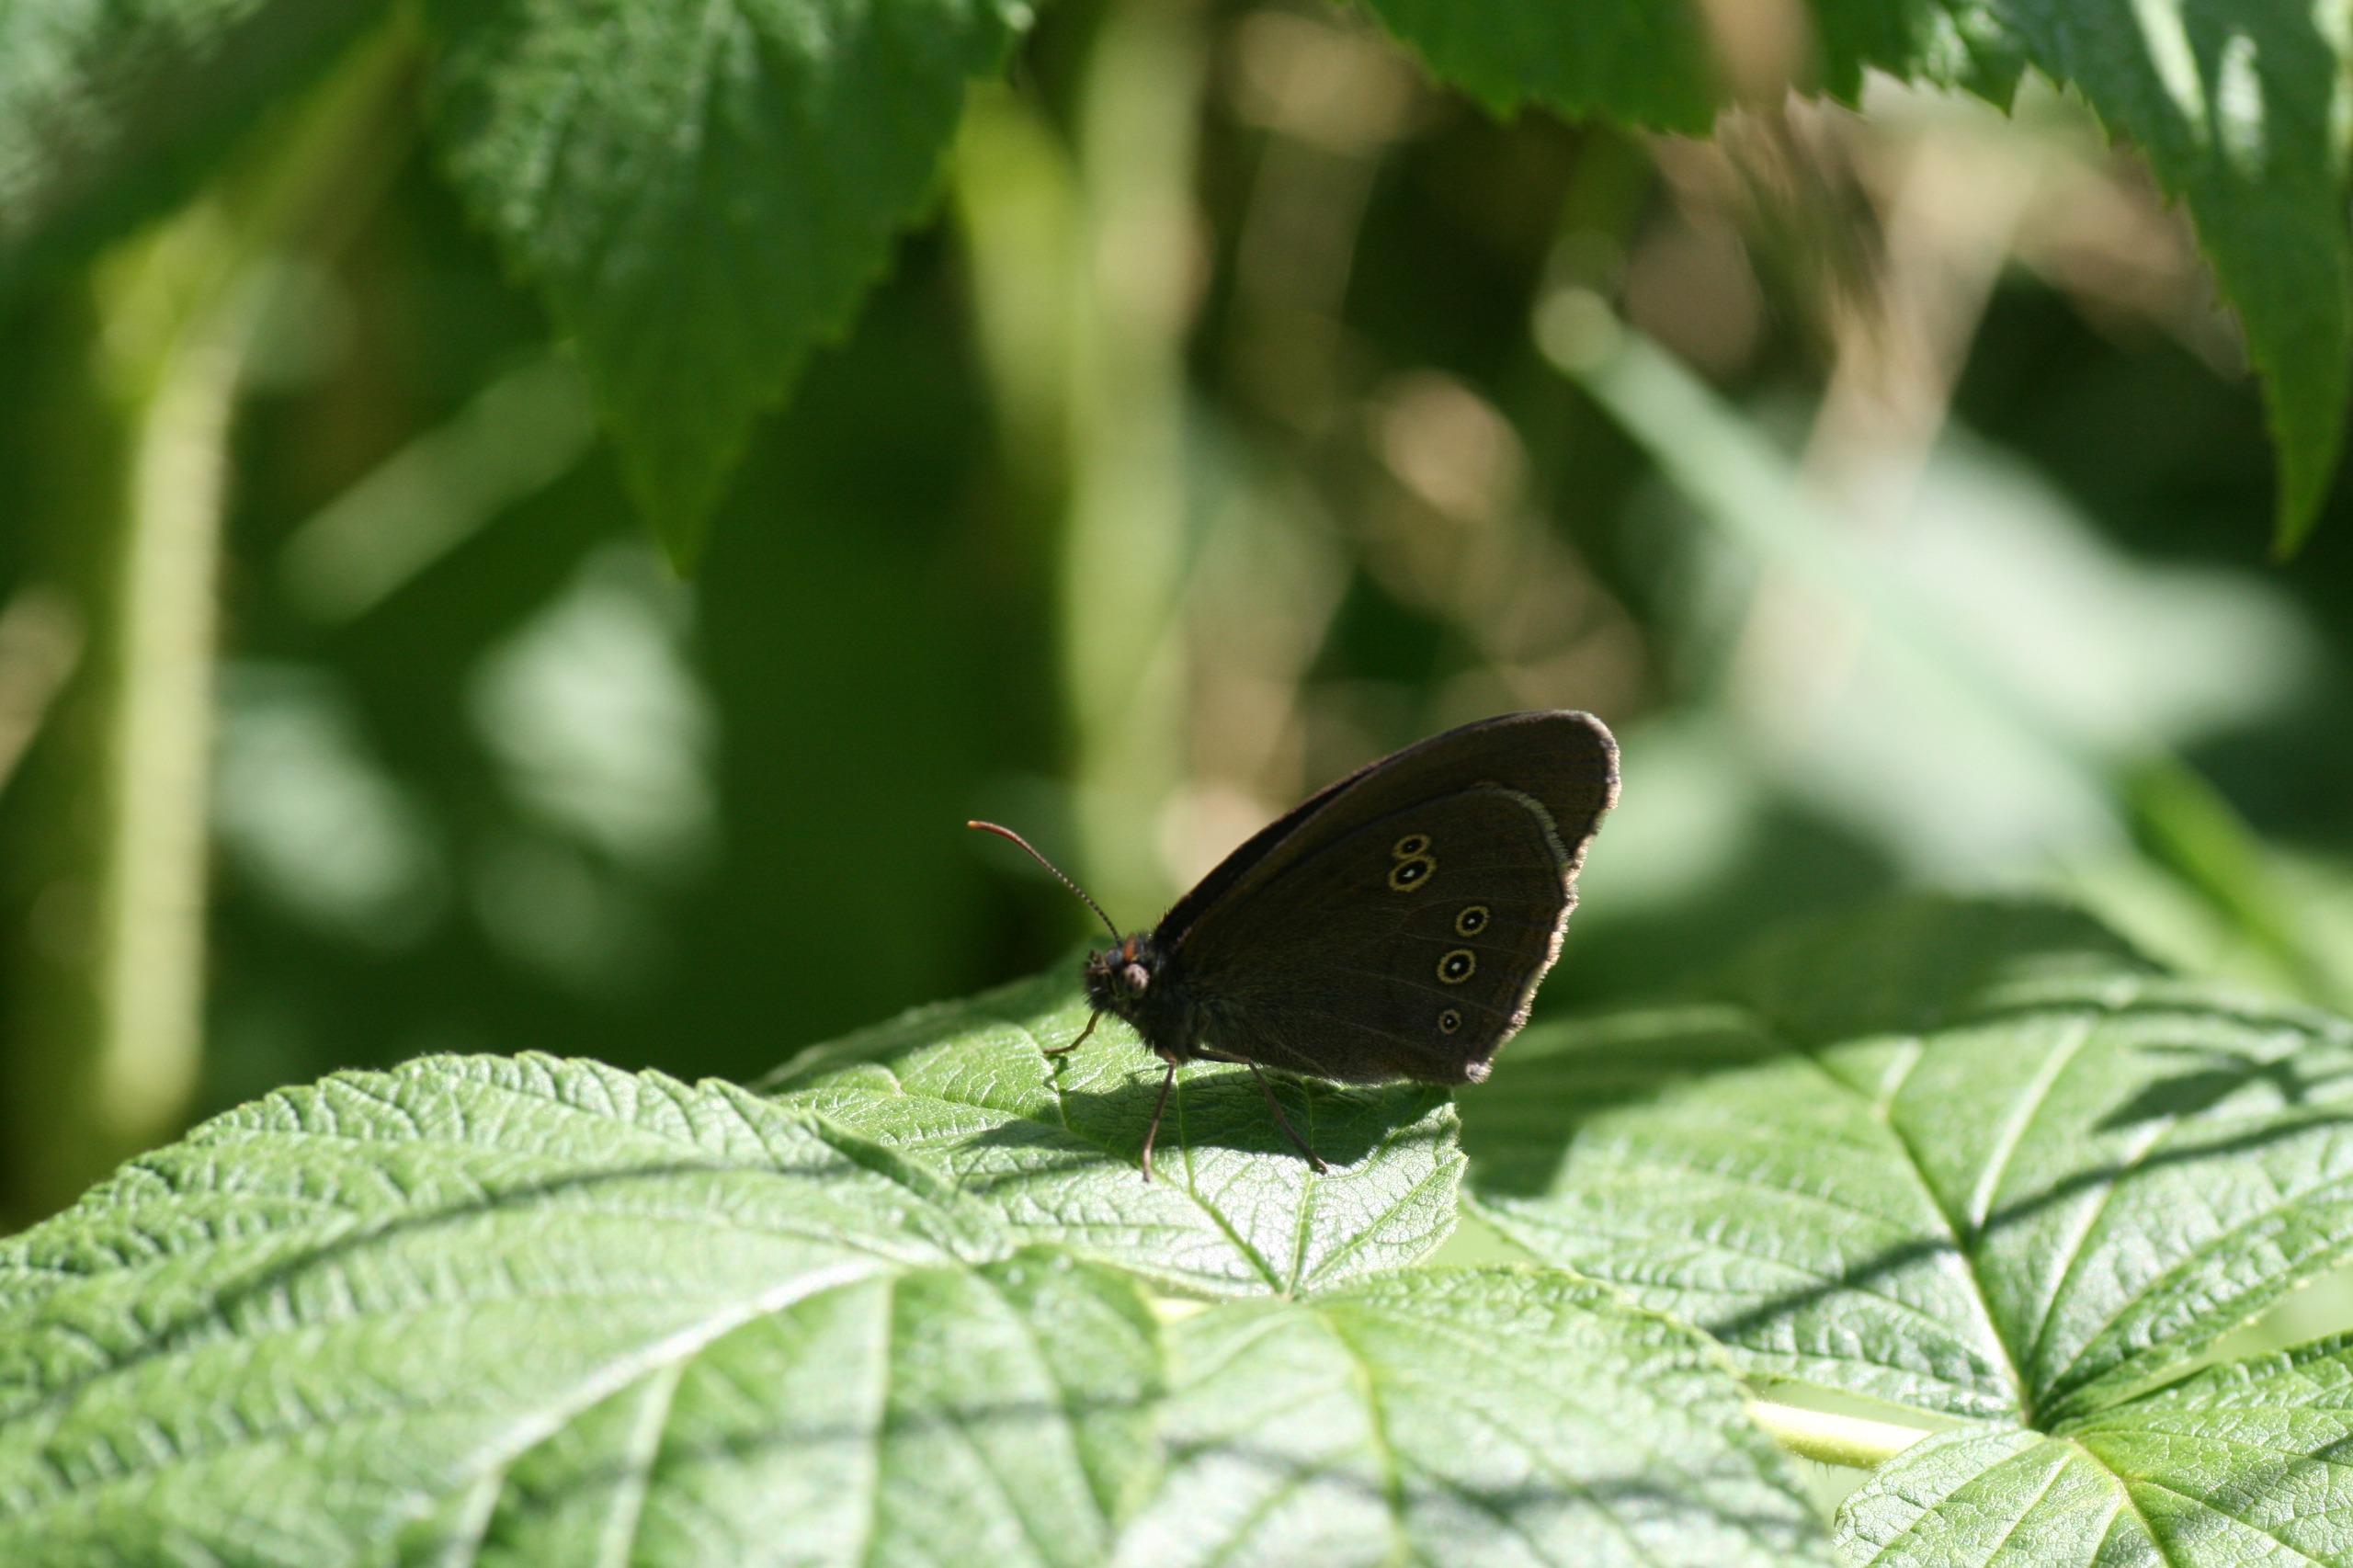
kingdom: Animalia
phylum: Arthropoda
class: Insecta
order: Lepidoptera
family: Nymphalidae
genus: Aphantopus
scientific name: Aphantopus hyperantus
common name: Engrandøje
